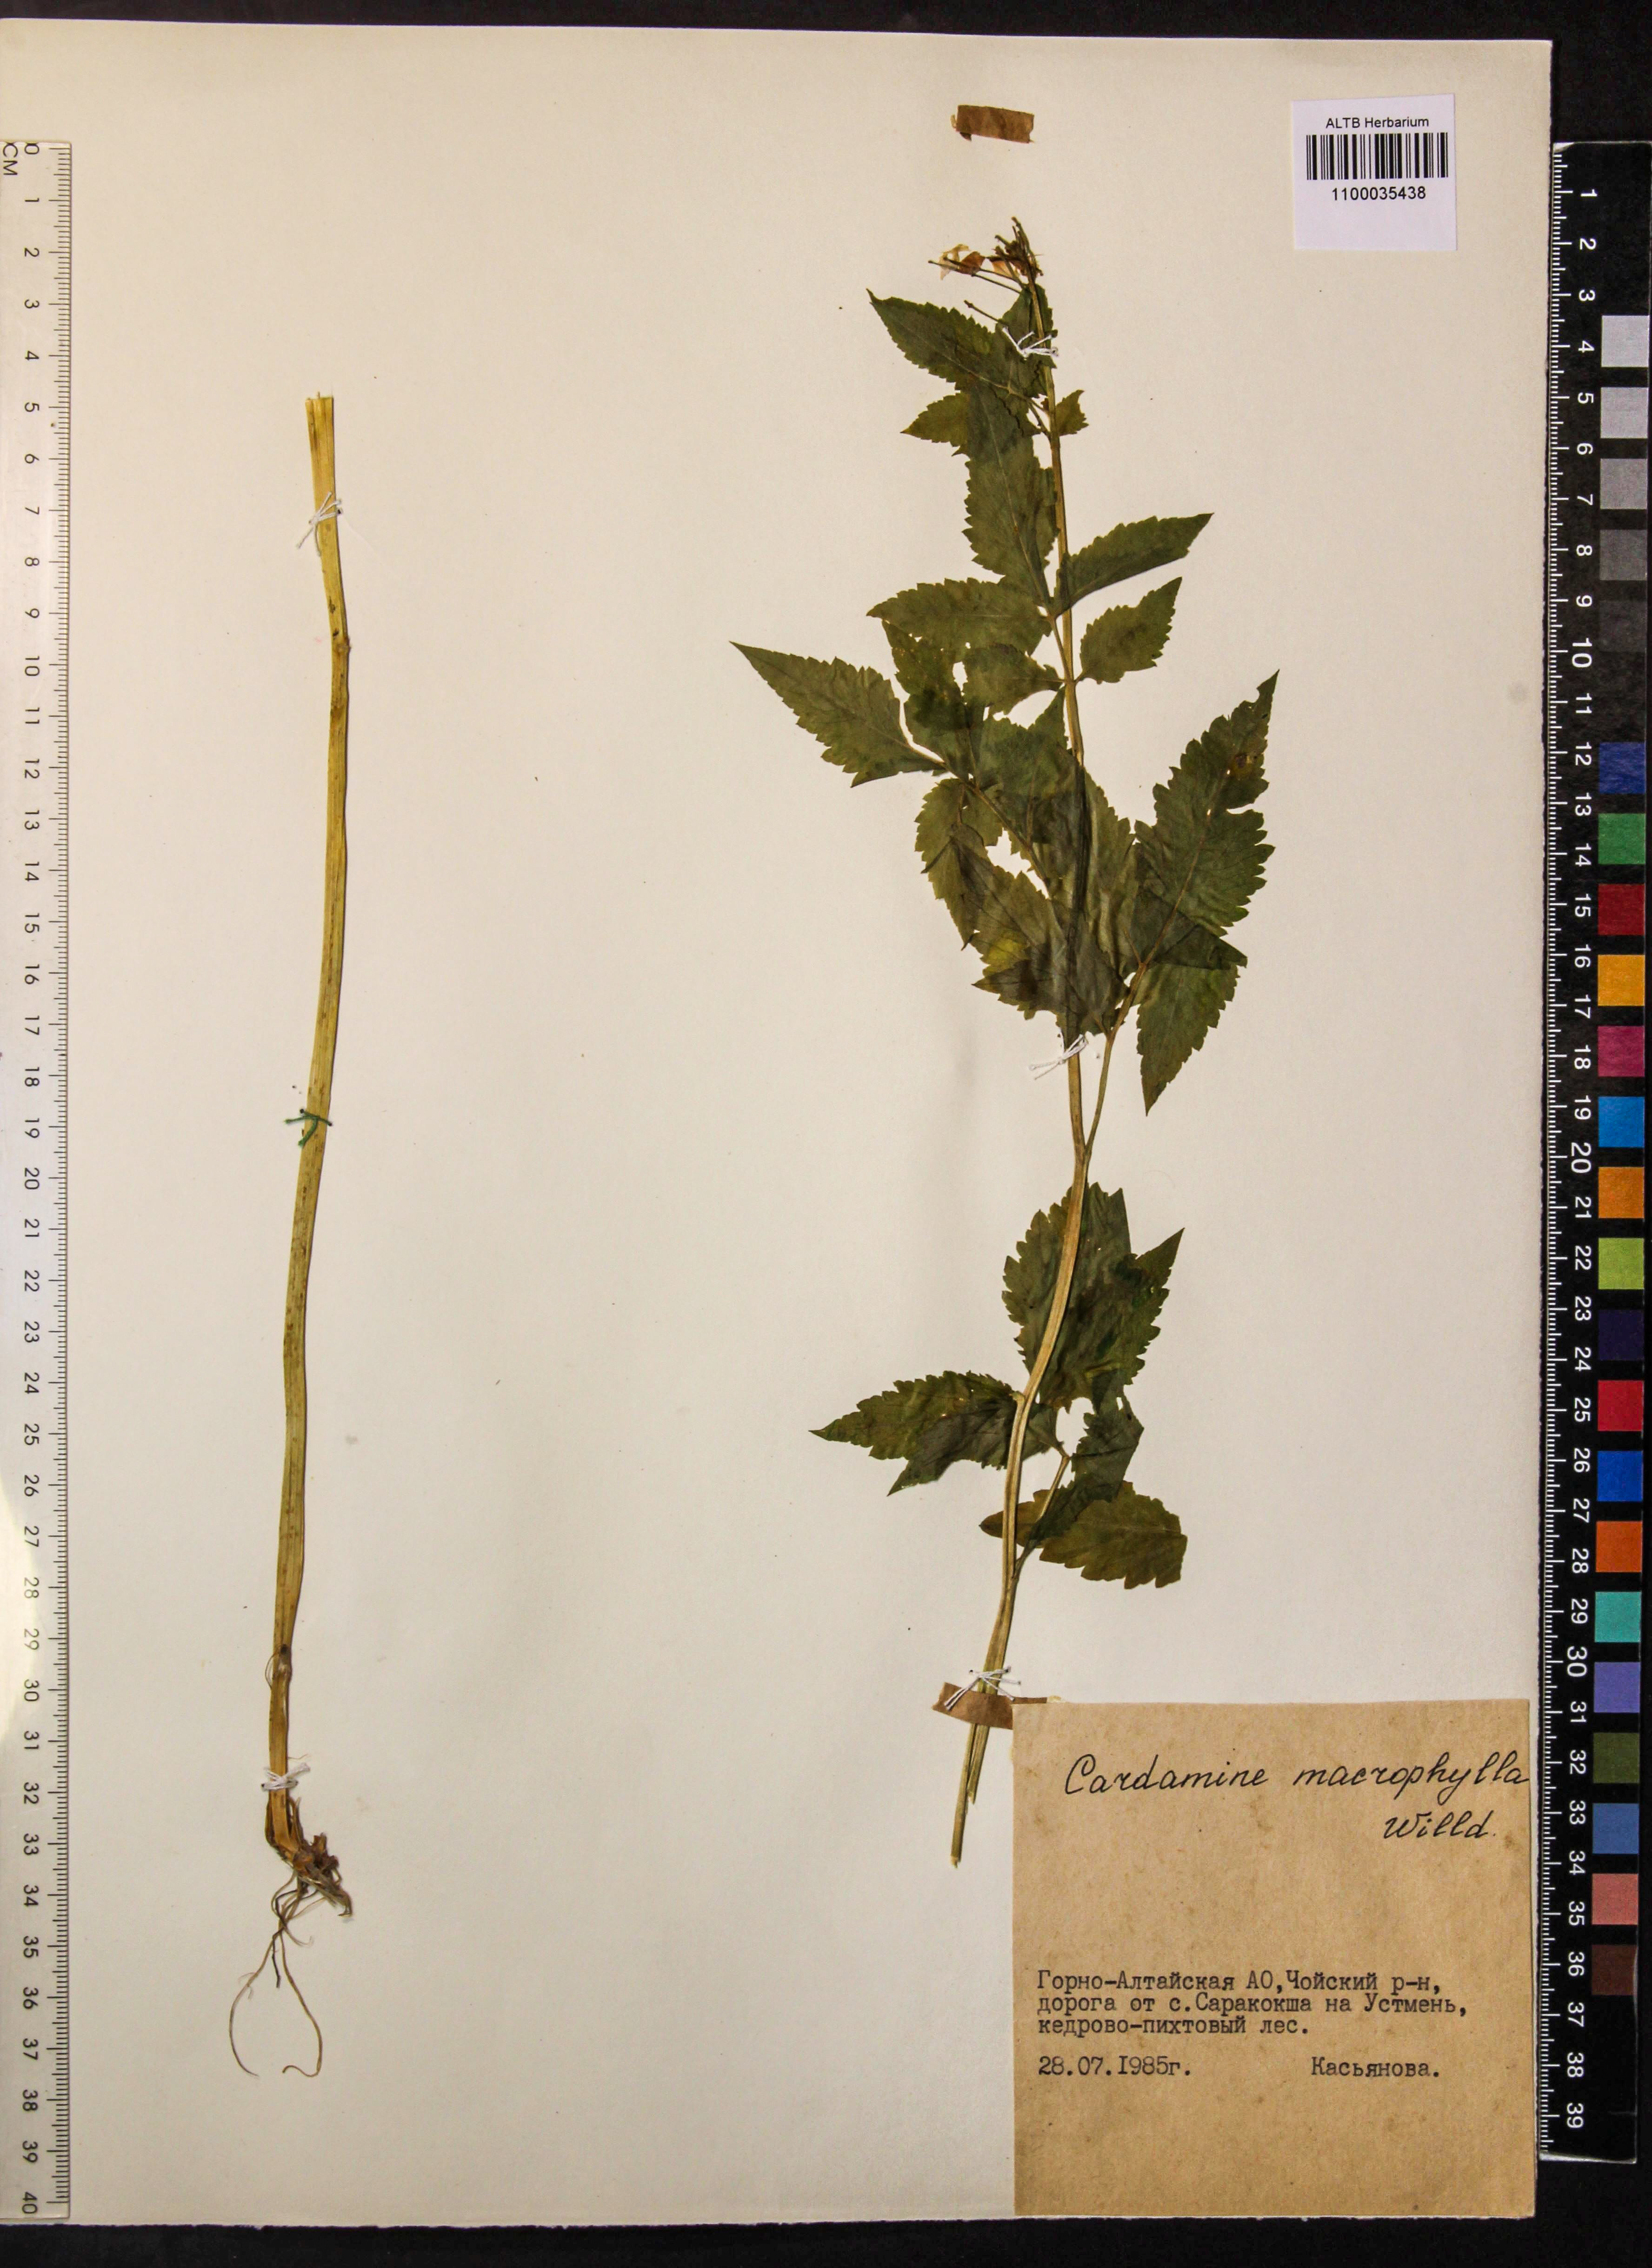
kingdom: Plantae
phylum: Tracheophyta
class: Magnoliopsida
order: Brassicales
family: Brassicaceae
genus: Cardamine
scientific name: Cardamine macrophylla
